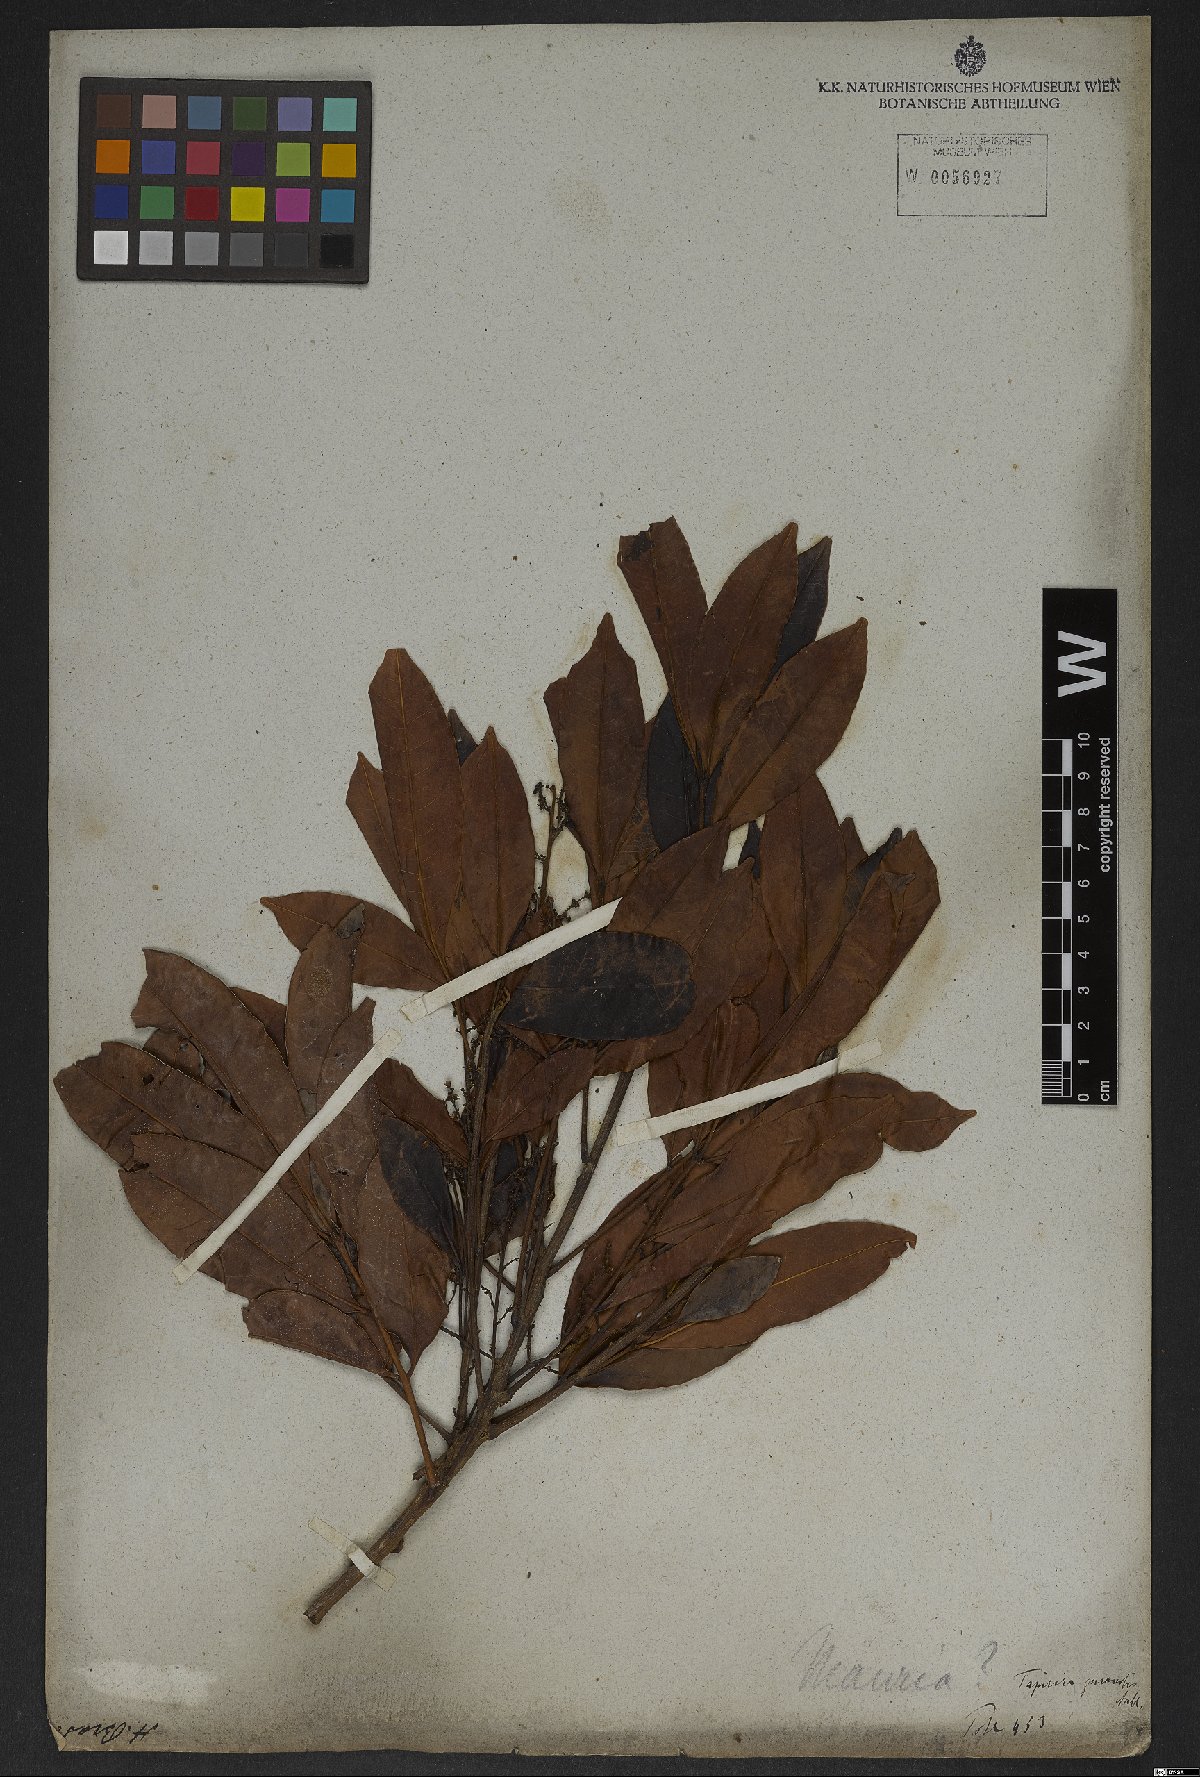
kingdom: Plantae
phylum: Tracheophyta
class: Magnoliopsida
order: Sapindales
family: Anacardiaceae
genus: Tapirira
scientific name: Tapirira guianensis
